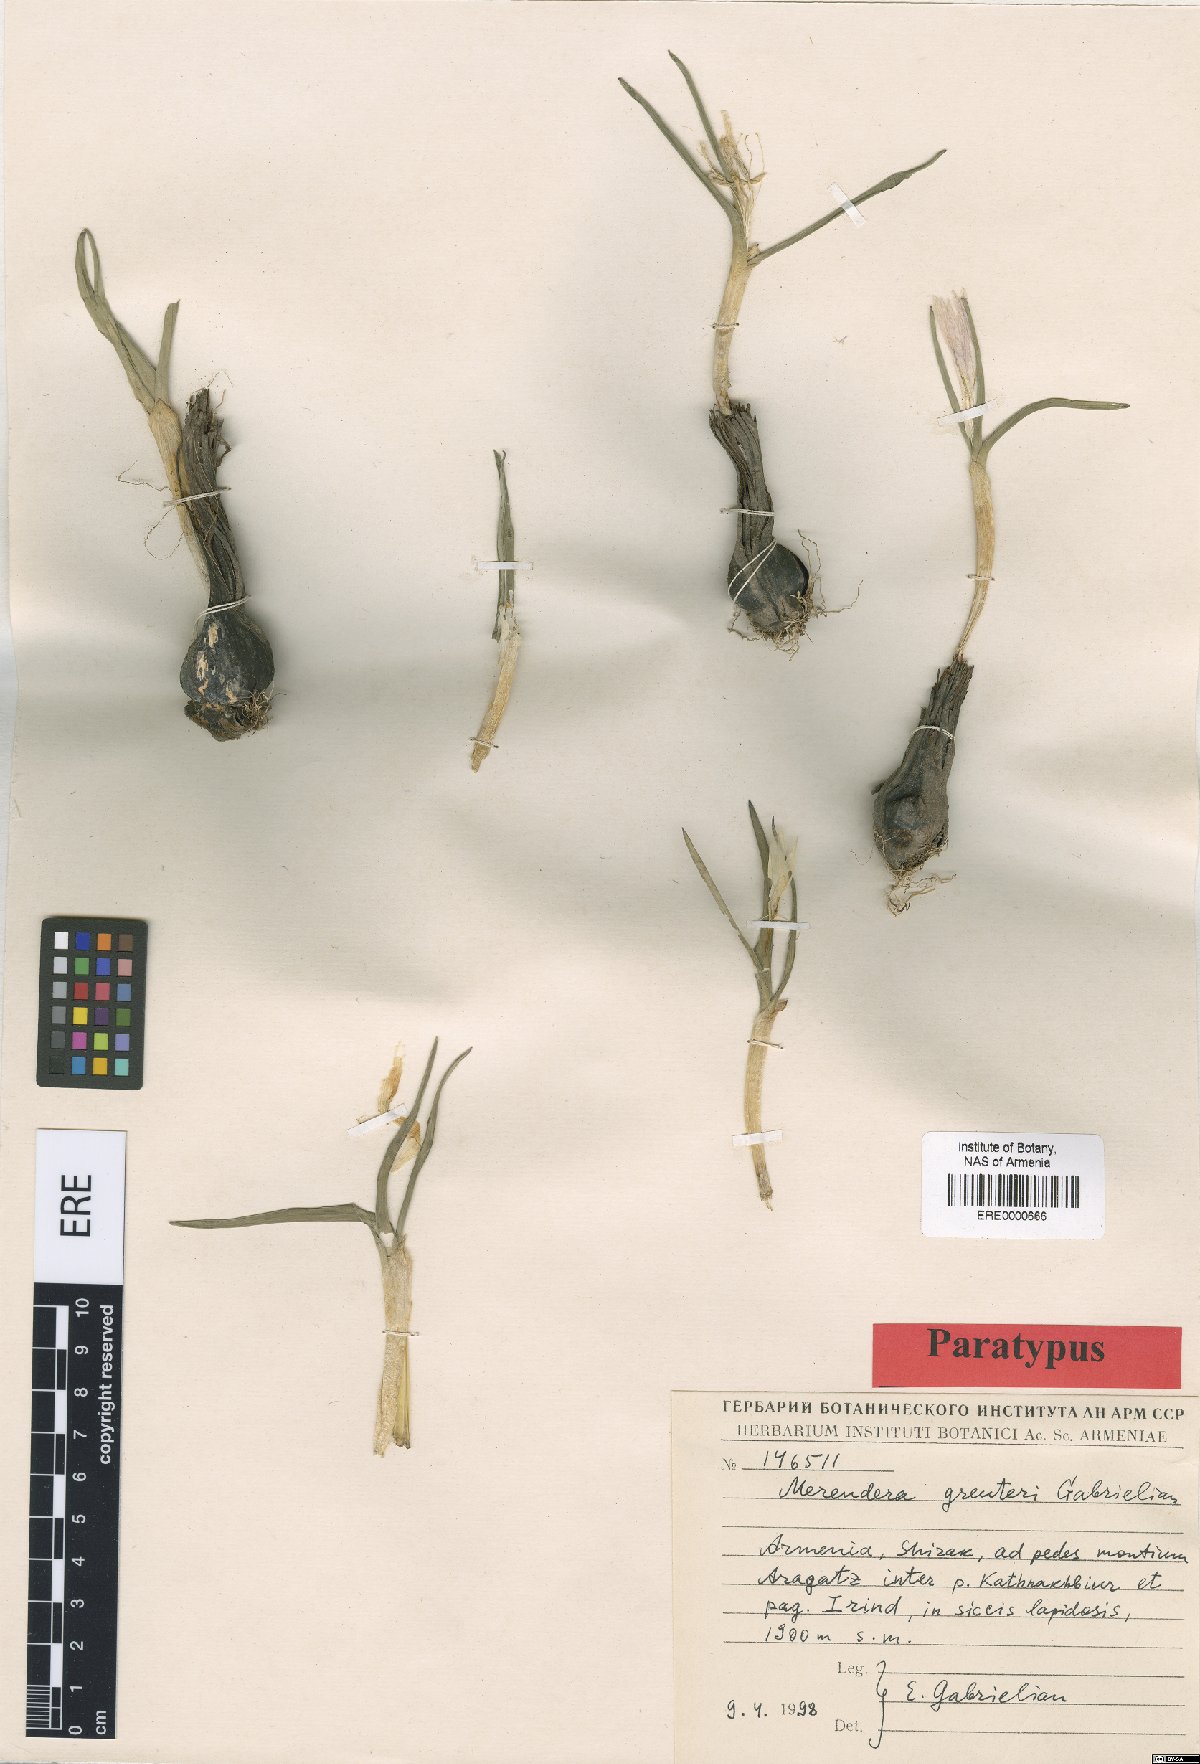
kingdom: Plantae
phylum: Tracheophyta
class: Liliopsida
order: Liliales
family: Colchicaceae
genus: Colchicum
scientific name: Colchicum trigynum
